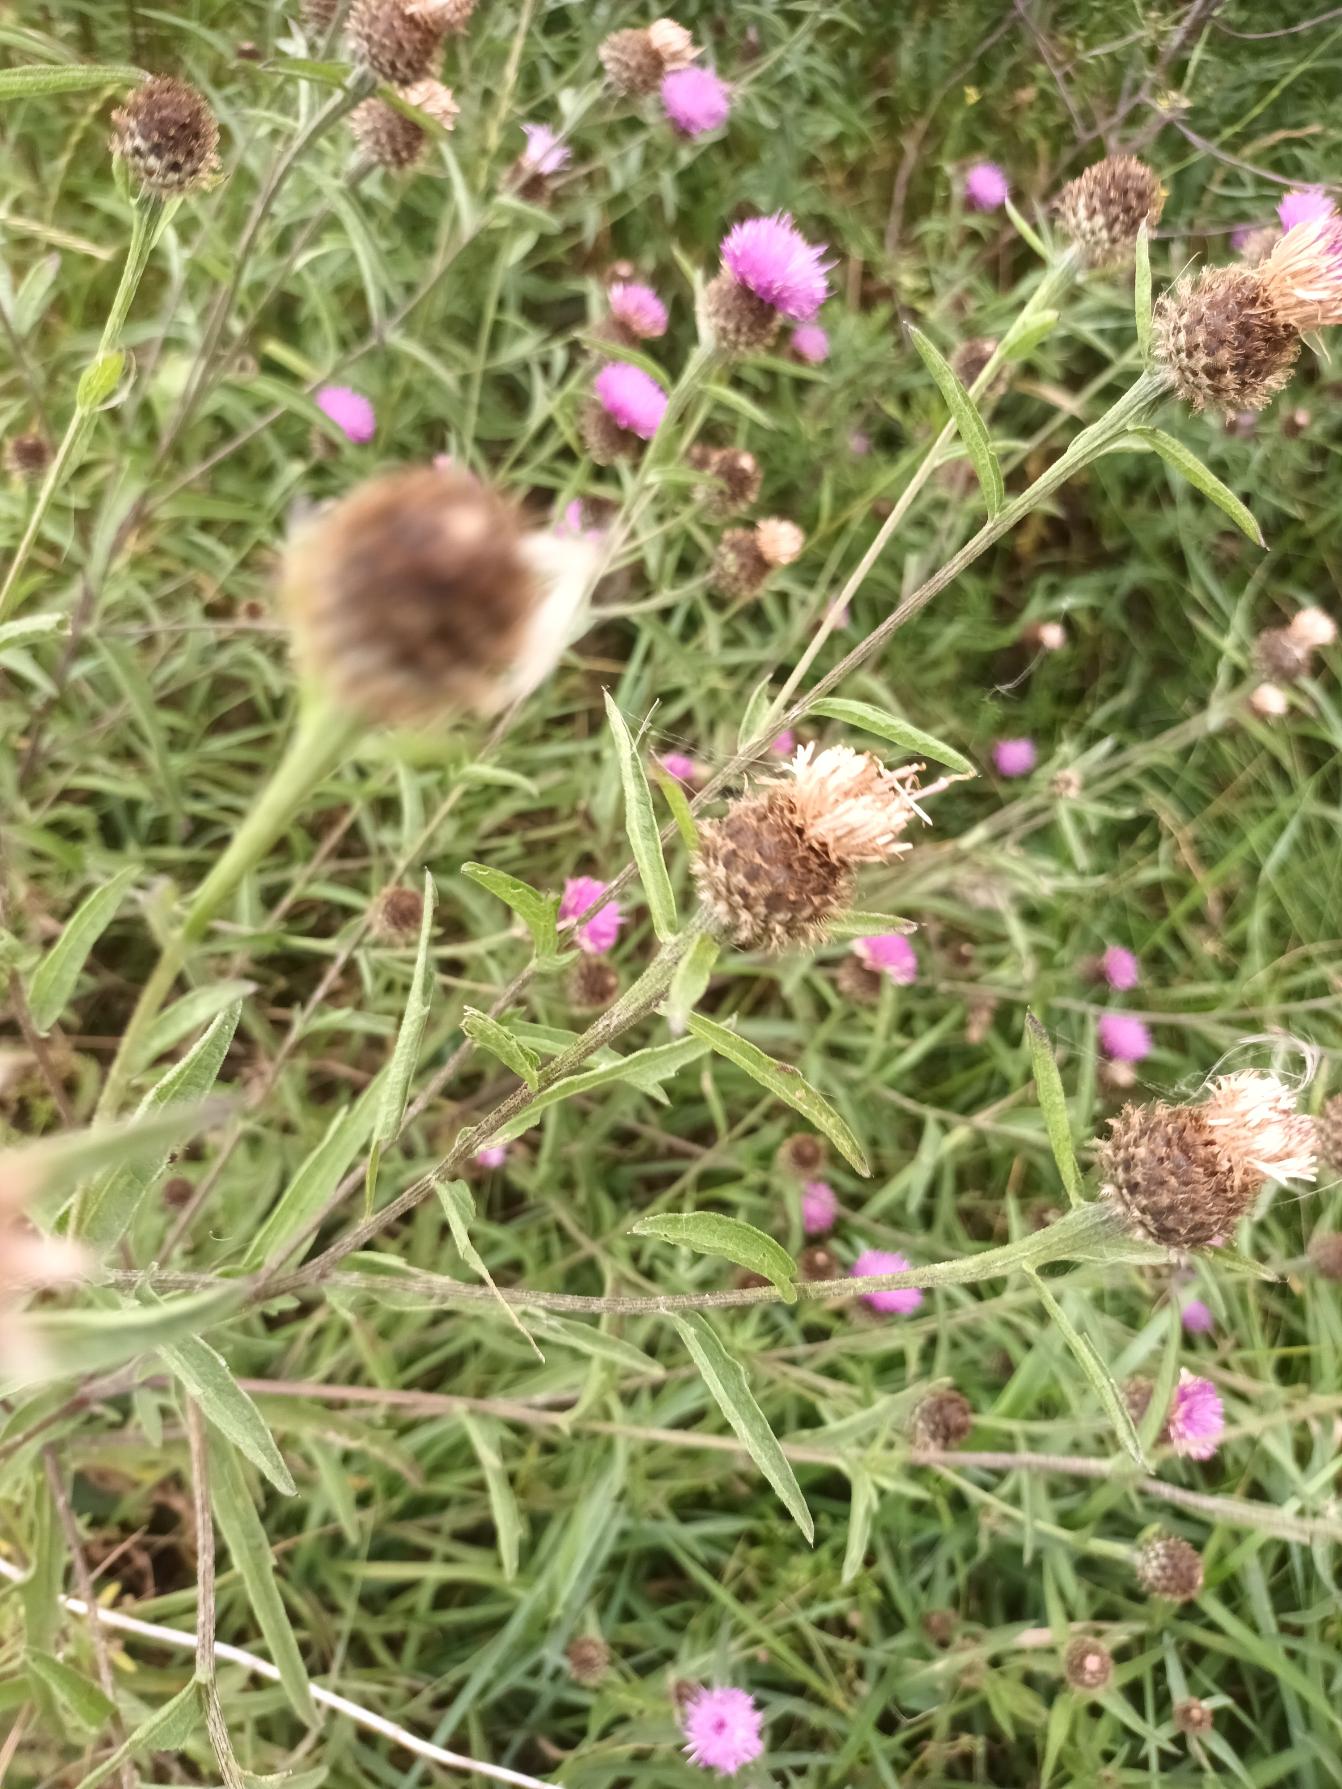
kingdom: Plantae
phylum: Tracheophyta
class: Magnoliopsida
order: Asterales
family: Asteraceae
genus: Centaurea
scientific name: Centaurea nigra
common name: Sorthoved-knopurt
